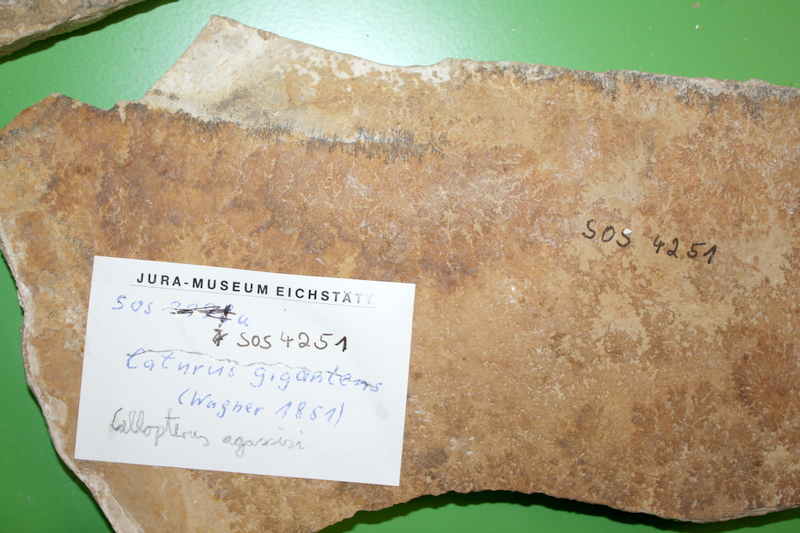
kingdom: Animalia
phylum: Chordata
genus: Callopterus
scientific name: Callopterus armata
